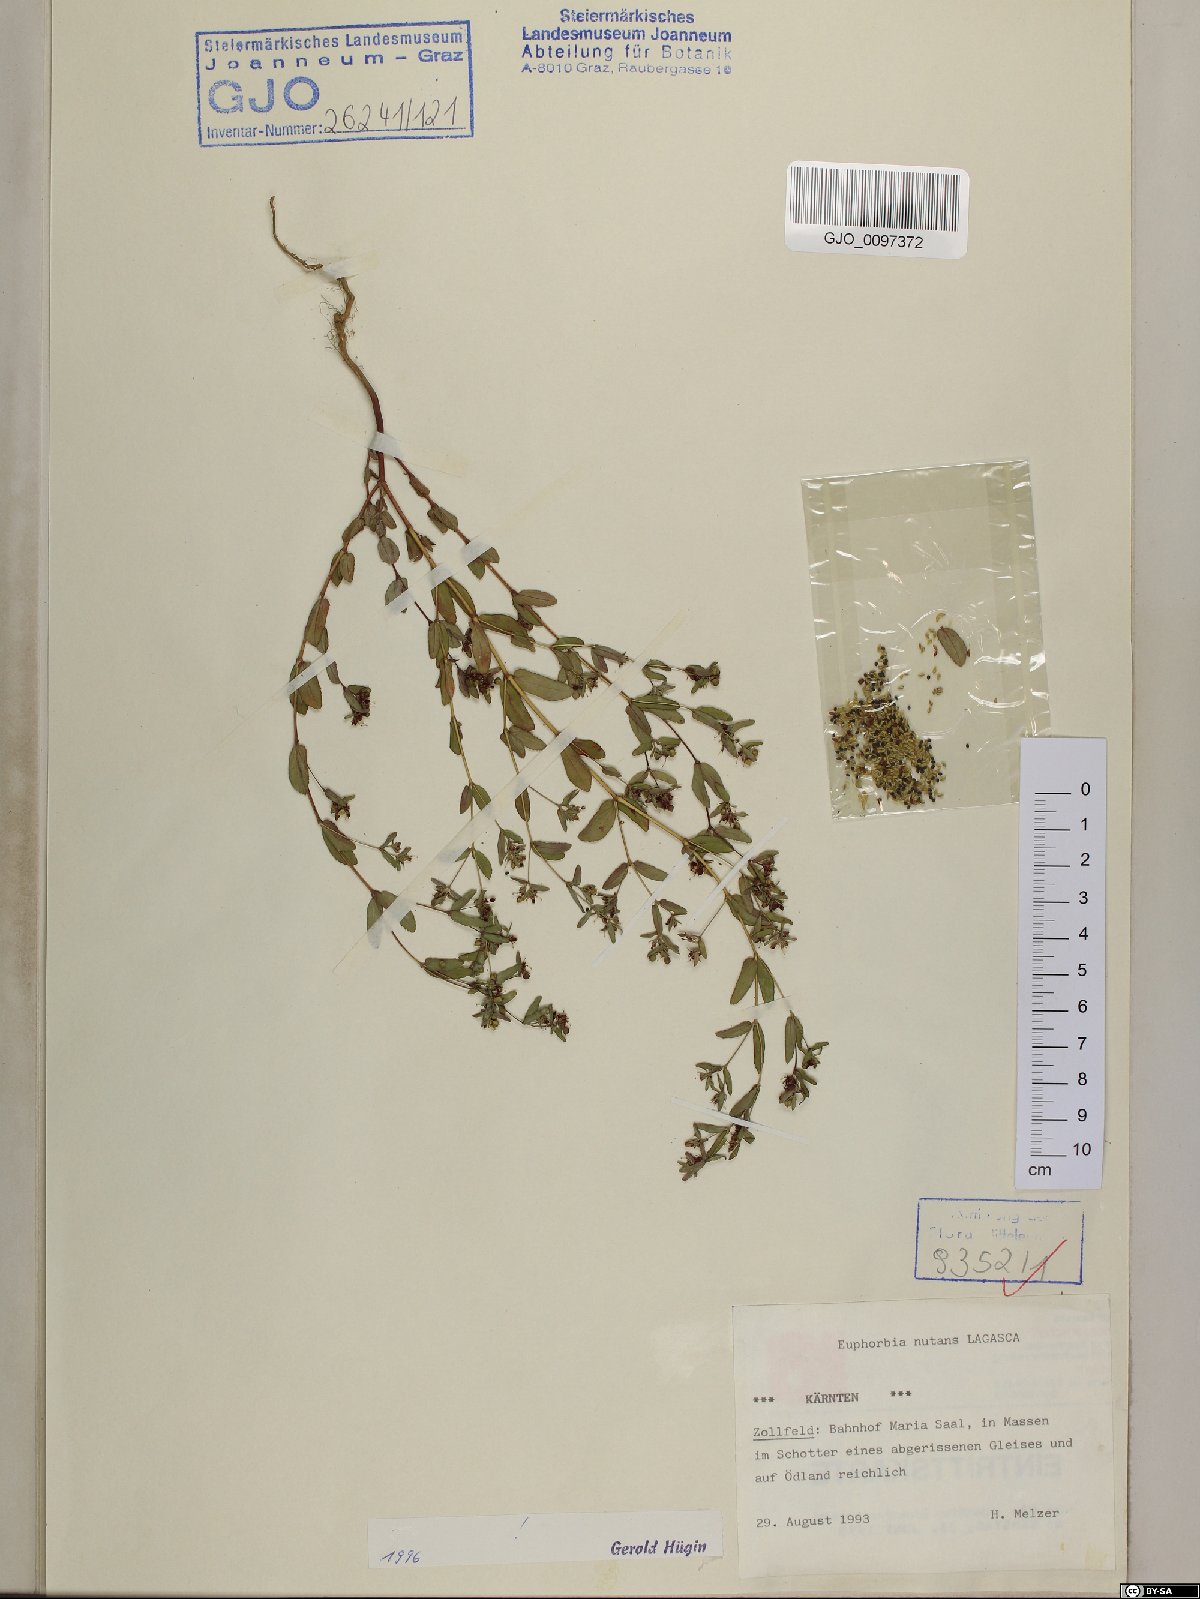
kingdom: Plantae
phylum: Tracheophyta
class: Magnoliopsida
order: Malpighiales
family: Euphorbiaceae
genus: Euphorbia
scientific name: Euphorbia nutans
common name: Eyebane
